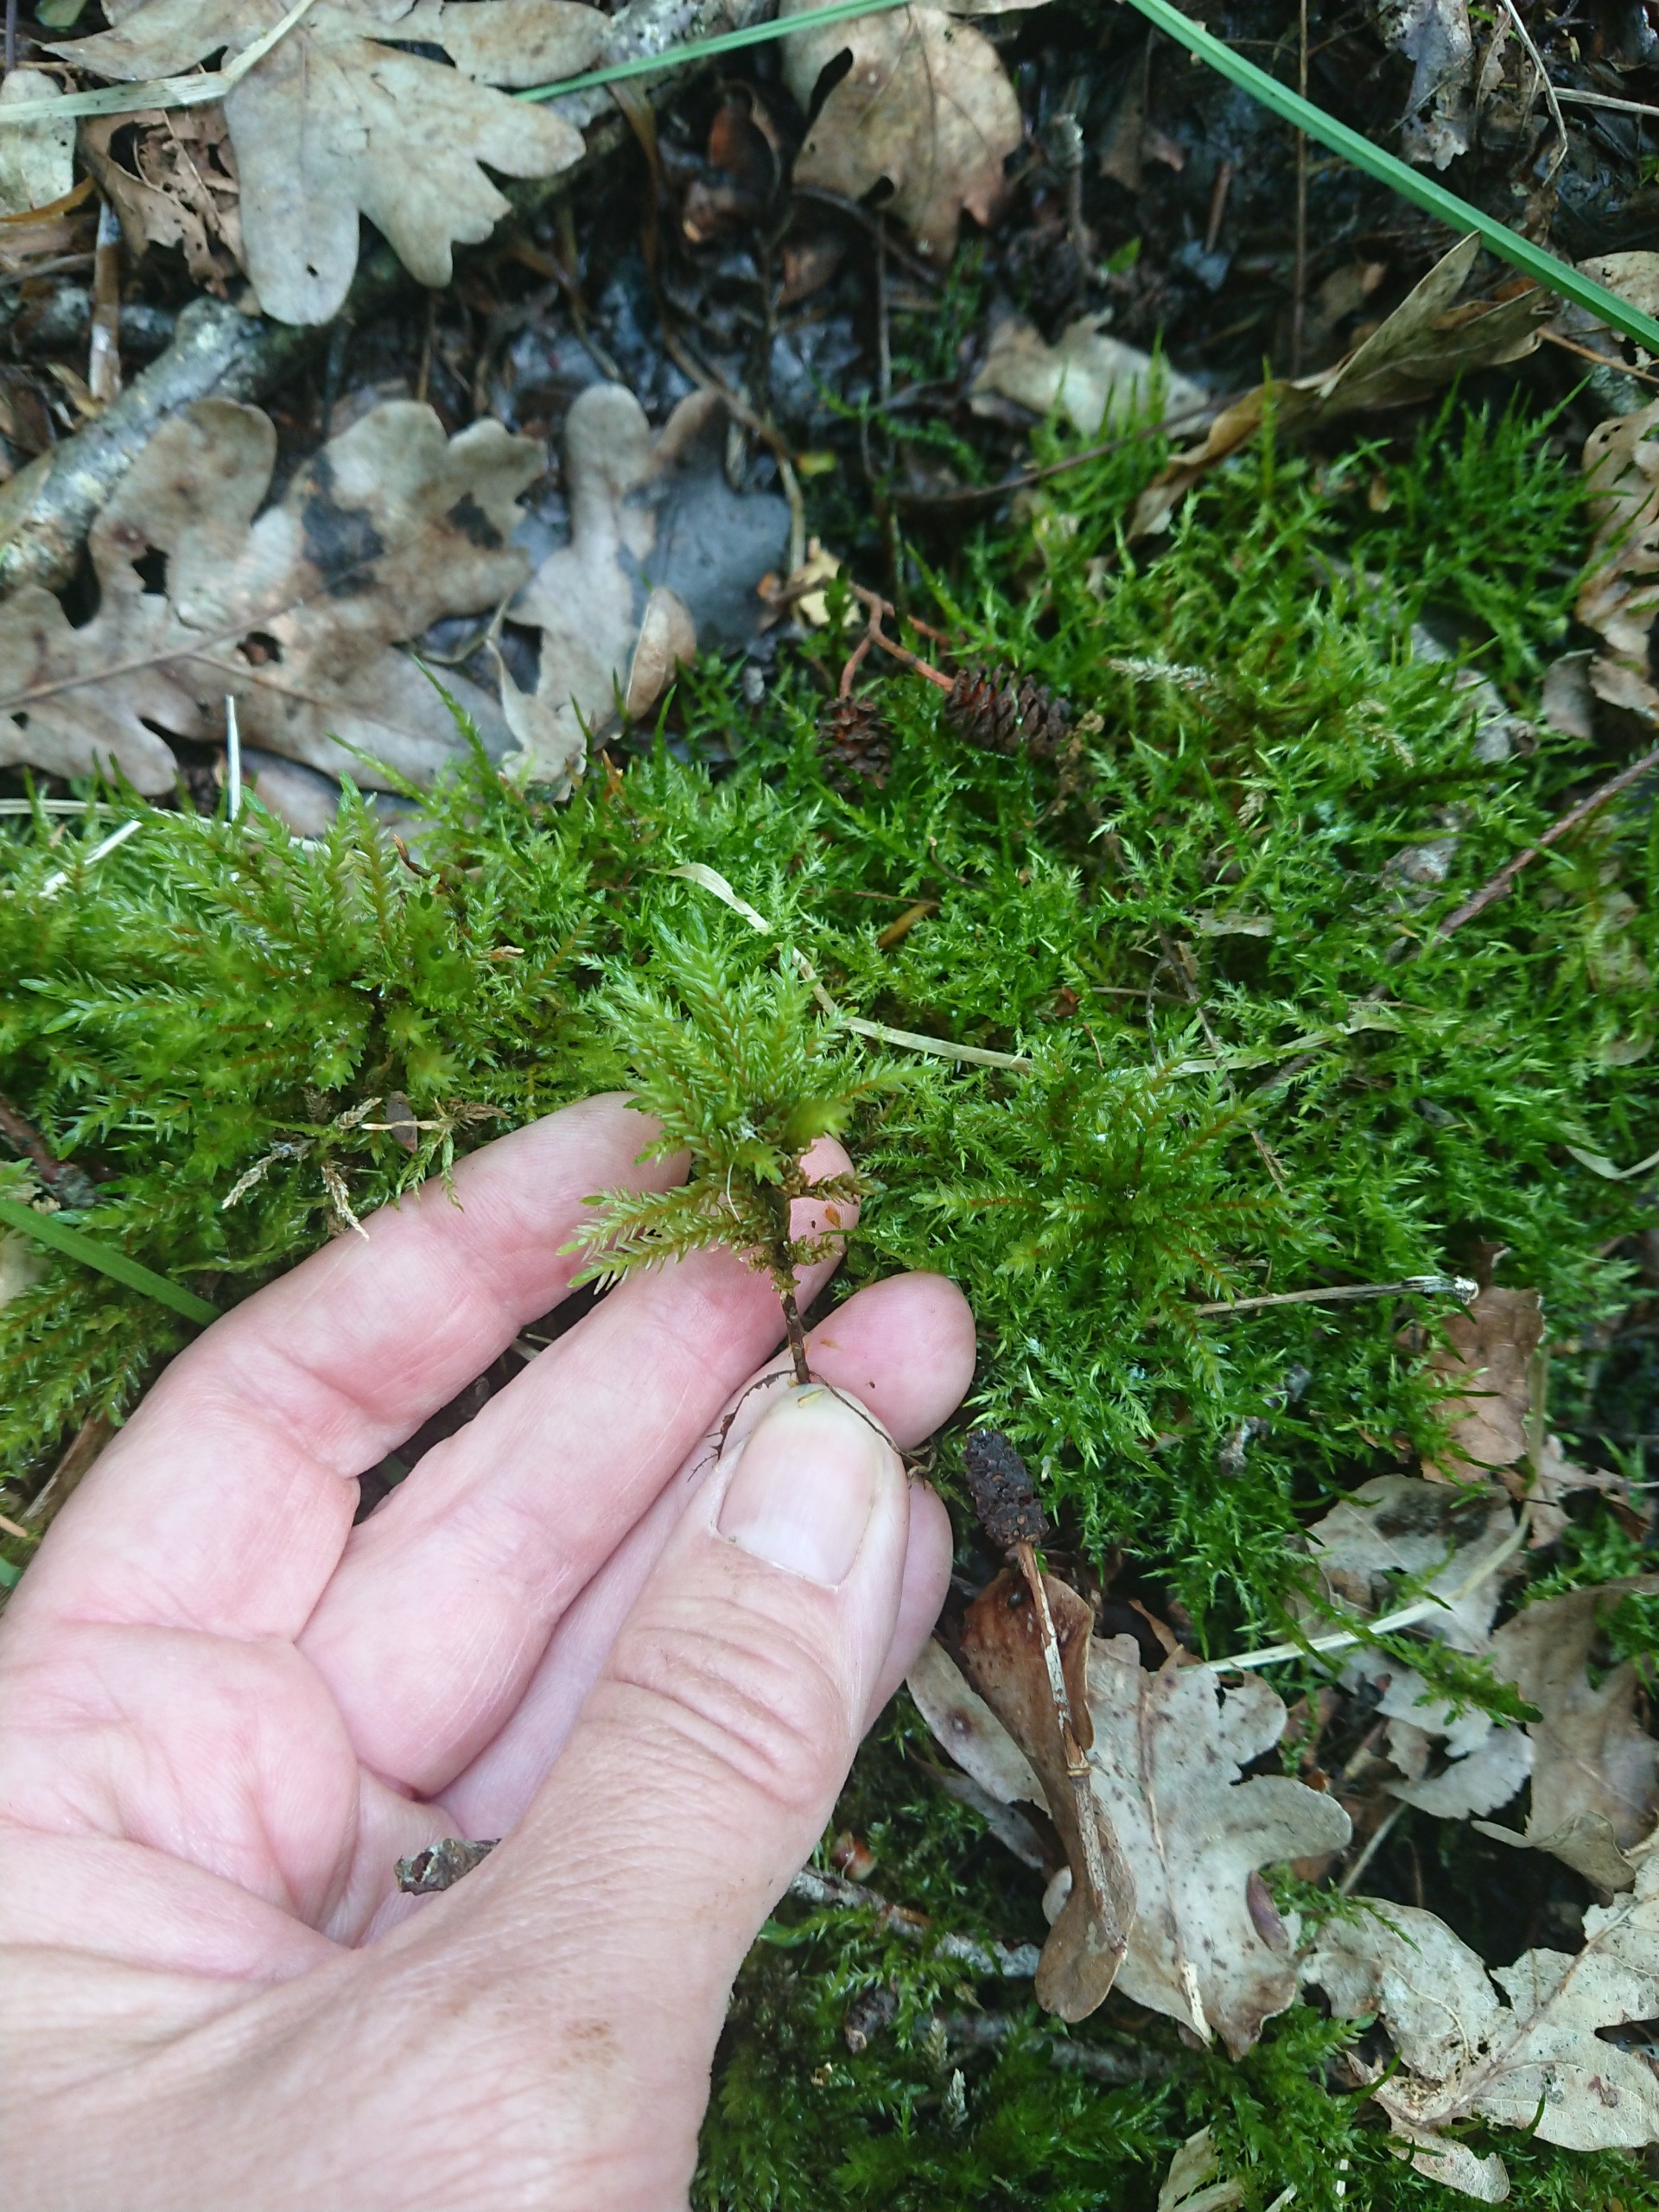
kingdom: Plantae
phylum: Bryophyta
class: Bryopsida
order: Hypnales
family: Climaciaceae
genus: Climacium
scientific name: Climacium dendroides
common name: Stor engkost
